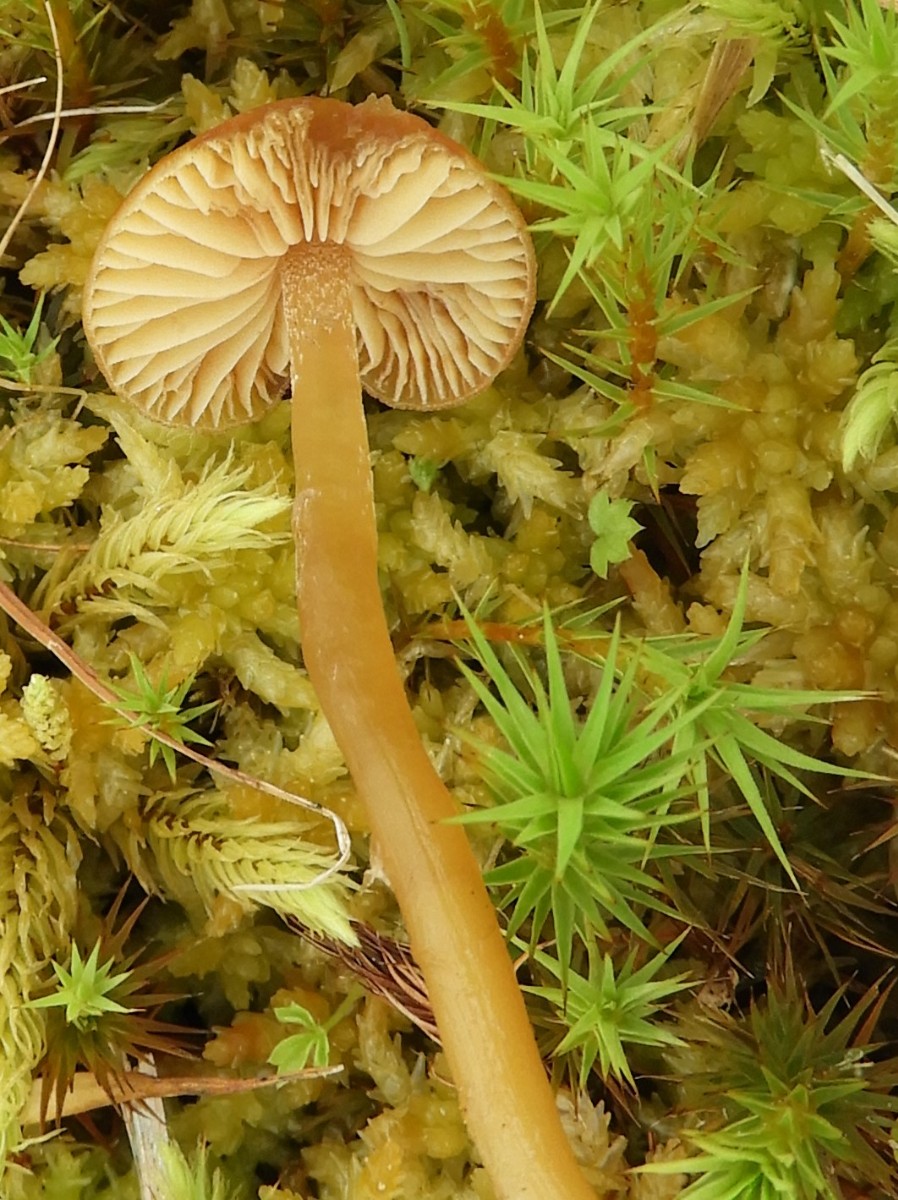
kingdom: Fungi
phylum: Basidiomycota
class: Agaricomycetes
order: Agaricales
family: Hymenogastraceae
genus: Galerina
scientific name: Galerina hybrida
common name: hængesæk-hjelmhat
